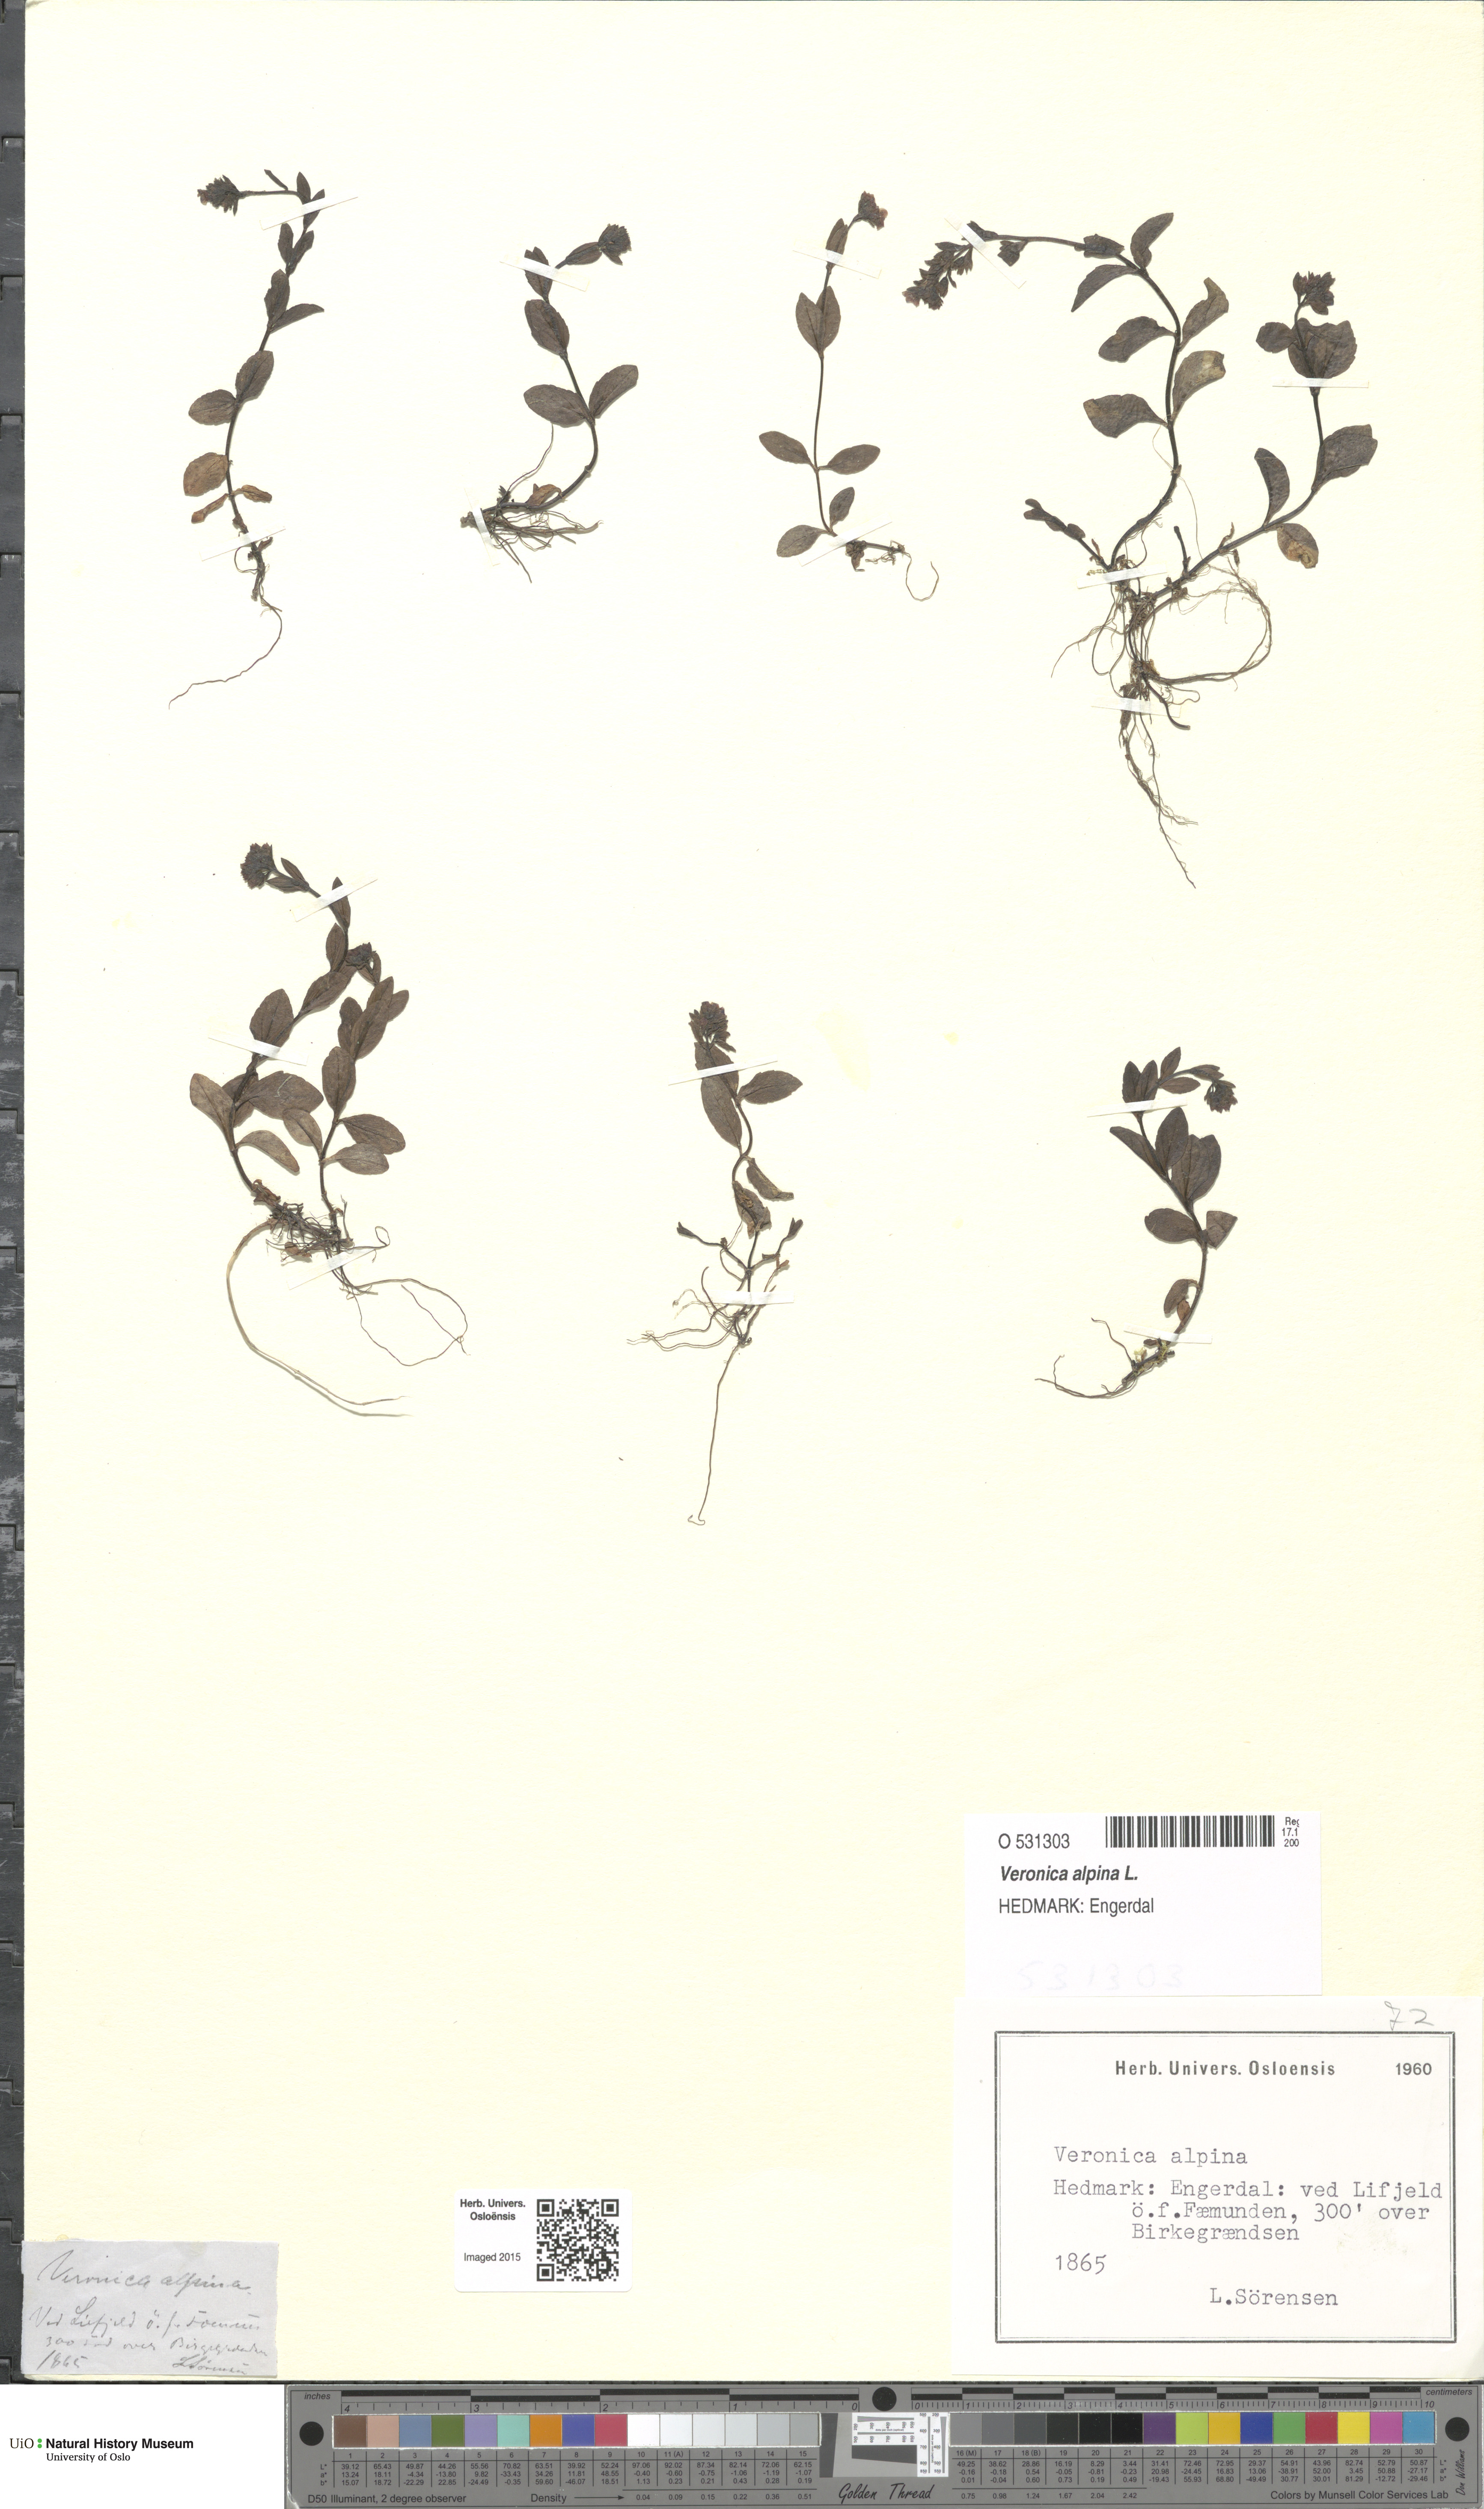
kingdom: Plantae
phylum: Tracheophyta
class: Magnoliopsida
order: Lamiales
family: Plantaginaceae
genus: Veronica
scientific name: Veronica alpina
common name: Alpine speedwell
